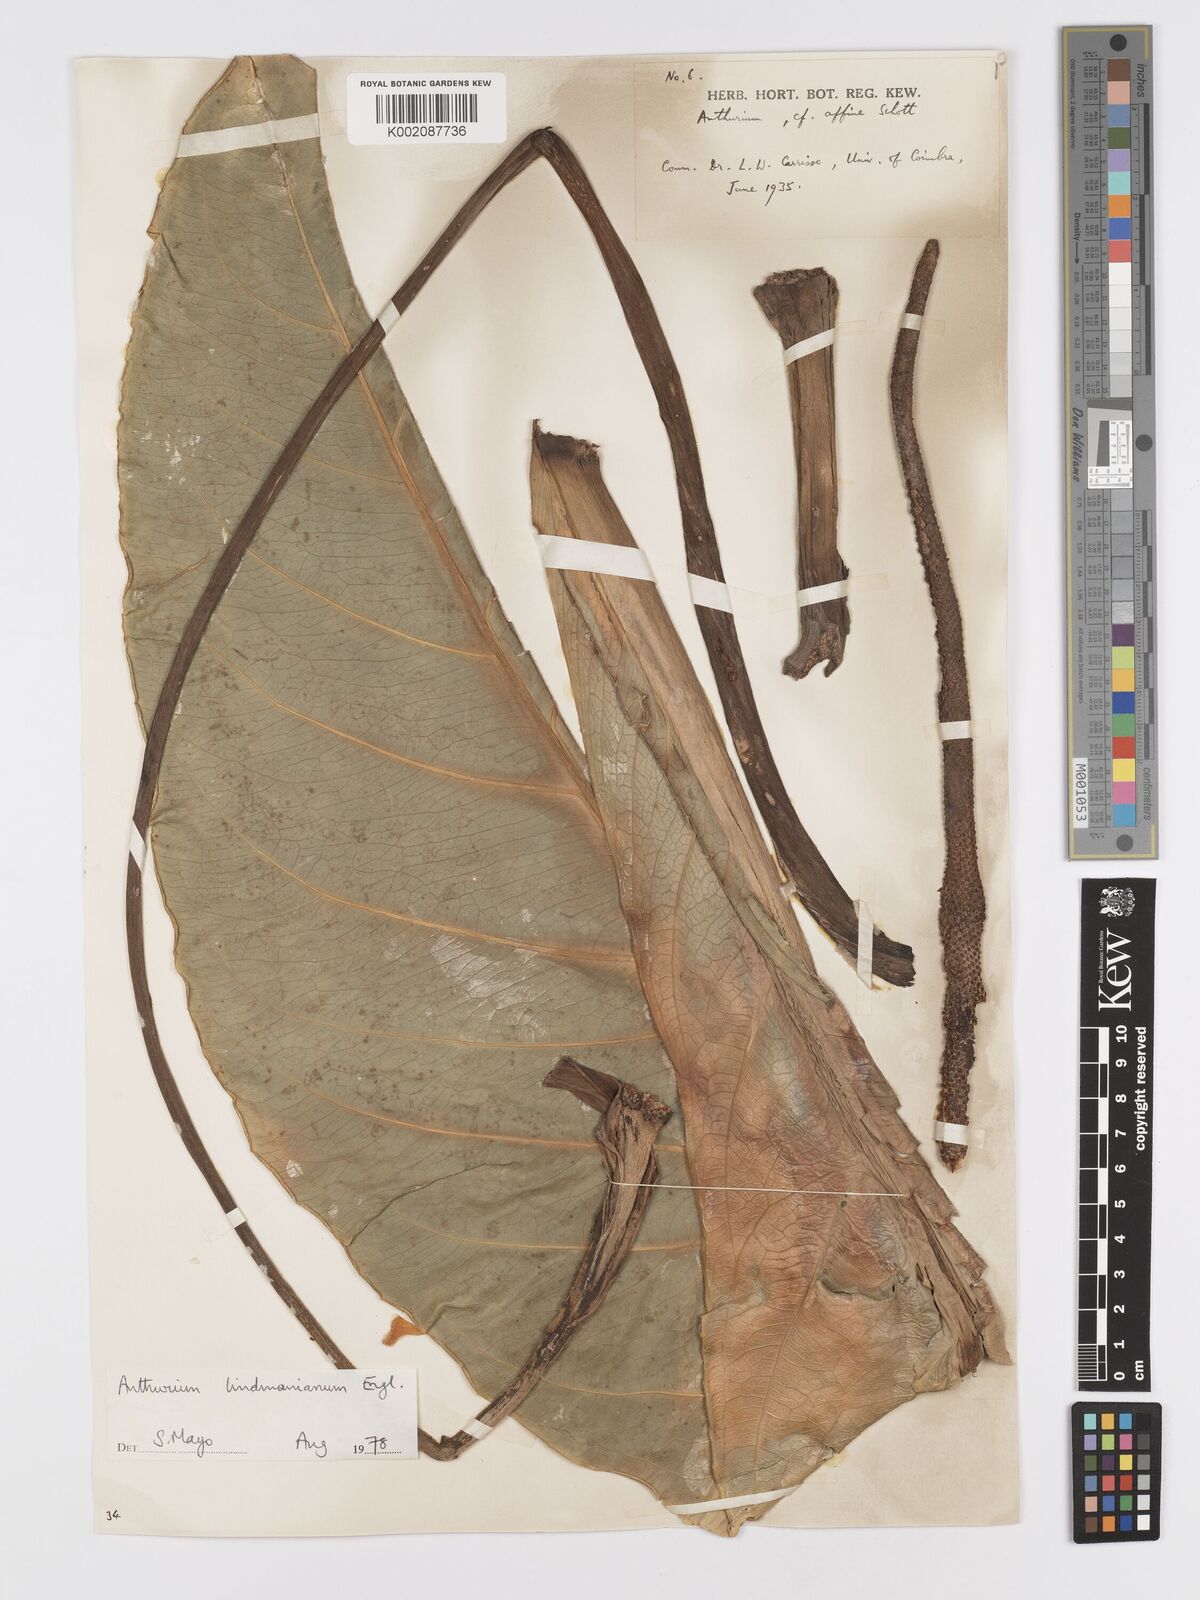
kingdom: Plantae
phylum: Tracheophyta
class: Liliopsida
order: Alismatales
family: Araceae
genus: Anthurium
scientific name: Anthurium lindmanianum
